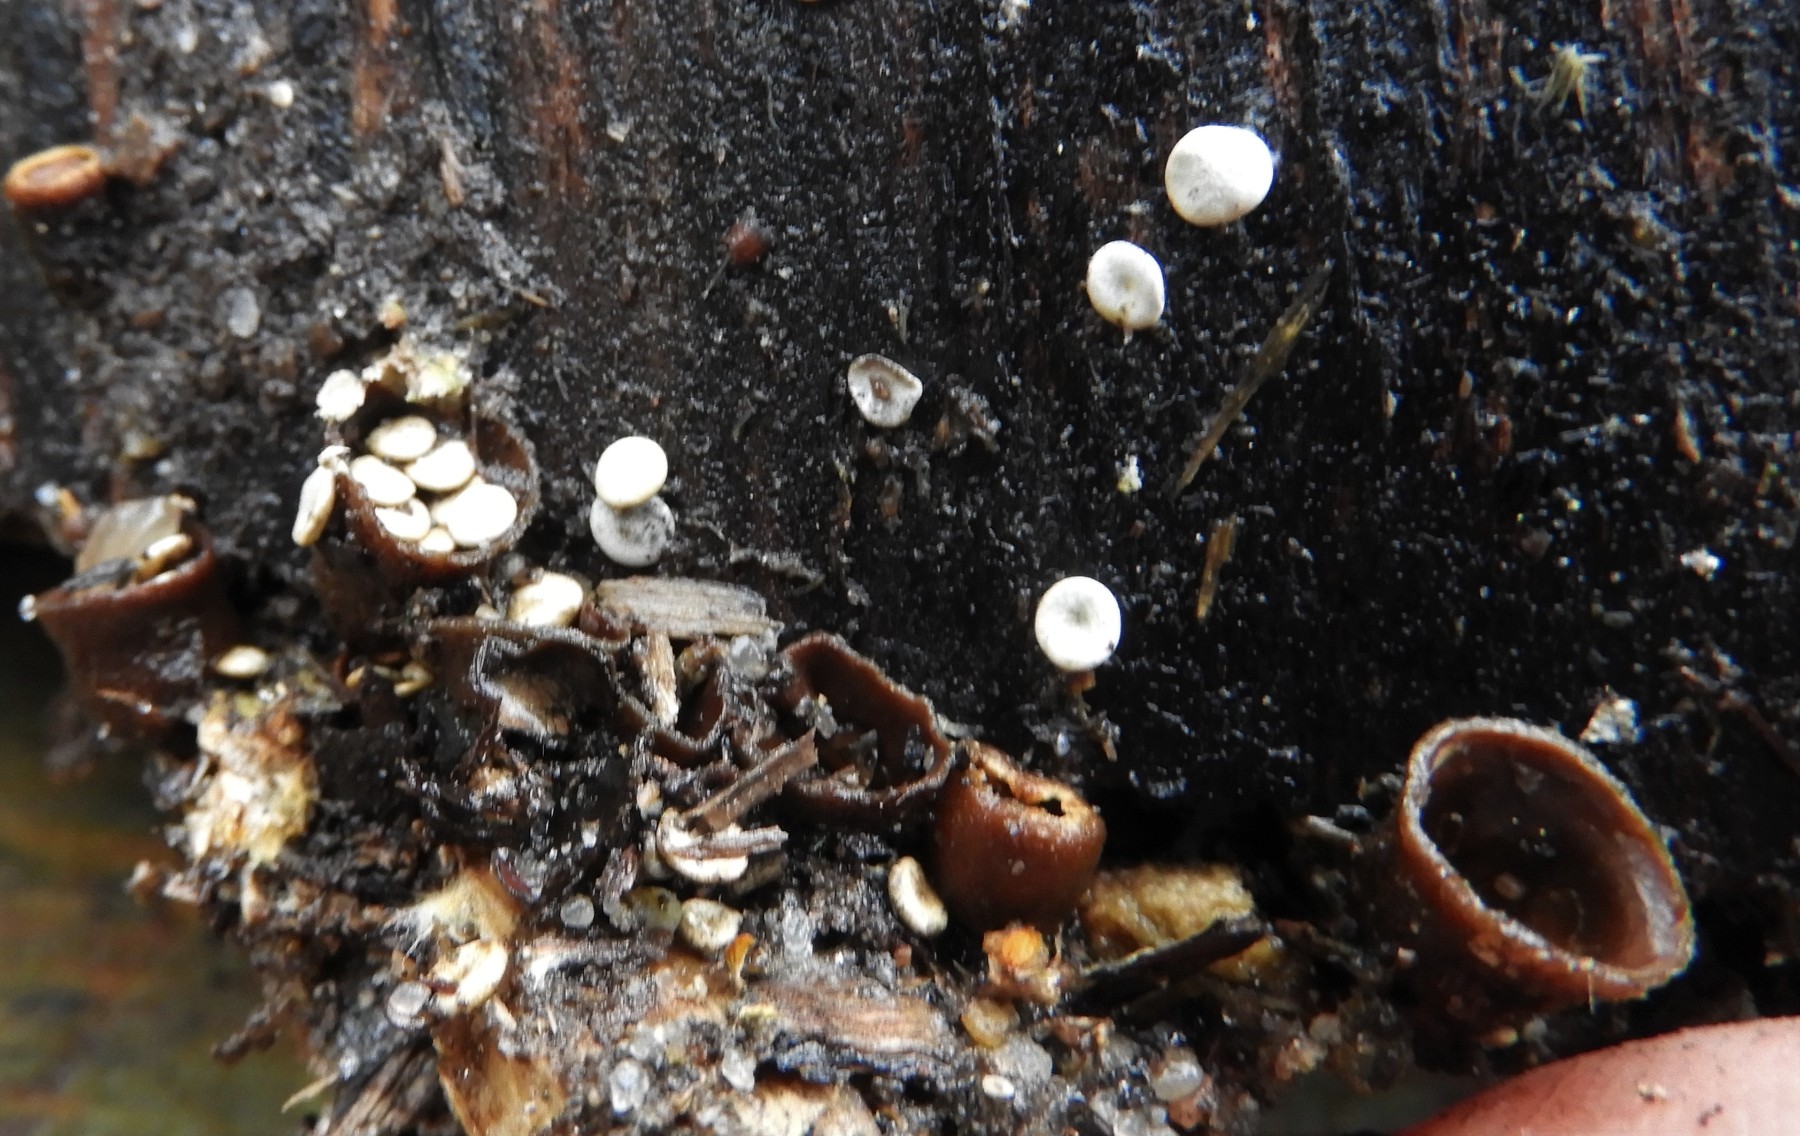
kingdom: Fungi
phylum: Basidiomycota
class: Agaricomycetes
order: Agaricales
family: Nidulariaceae
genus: Crucibulum
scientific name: Crucibulum crucibuliforme
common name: krukkesvamp
